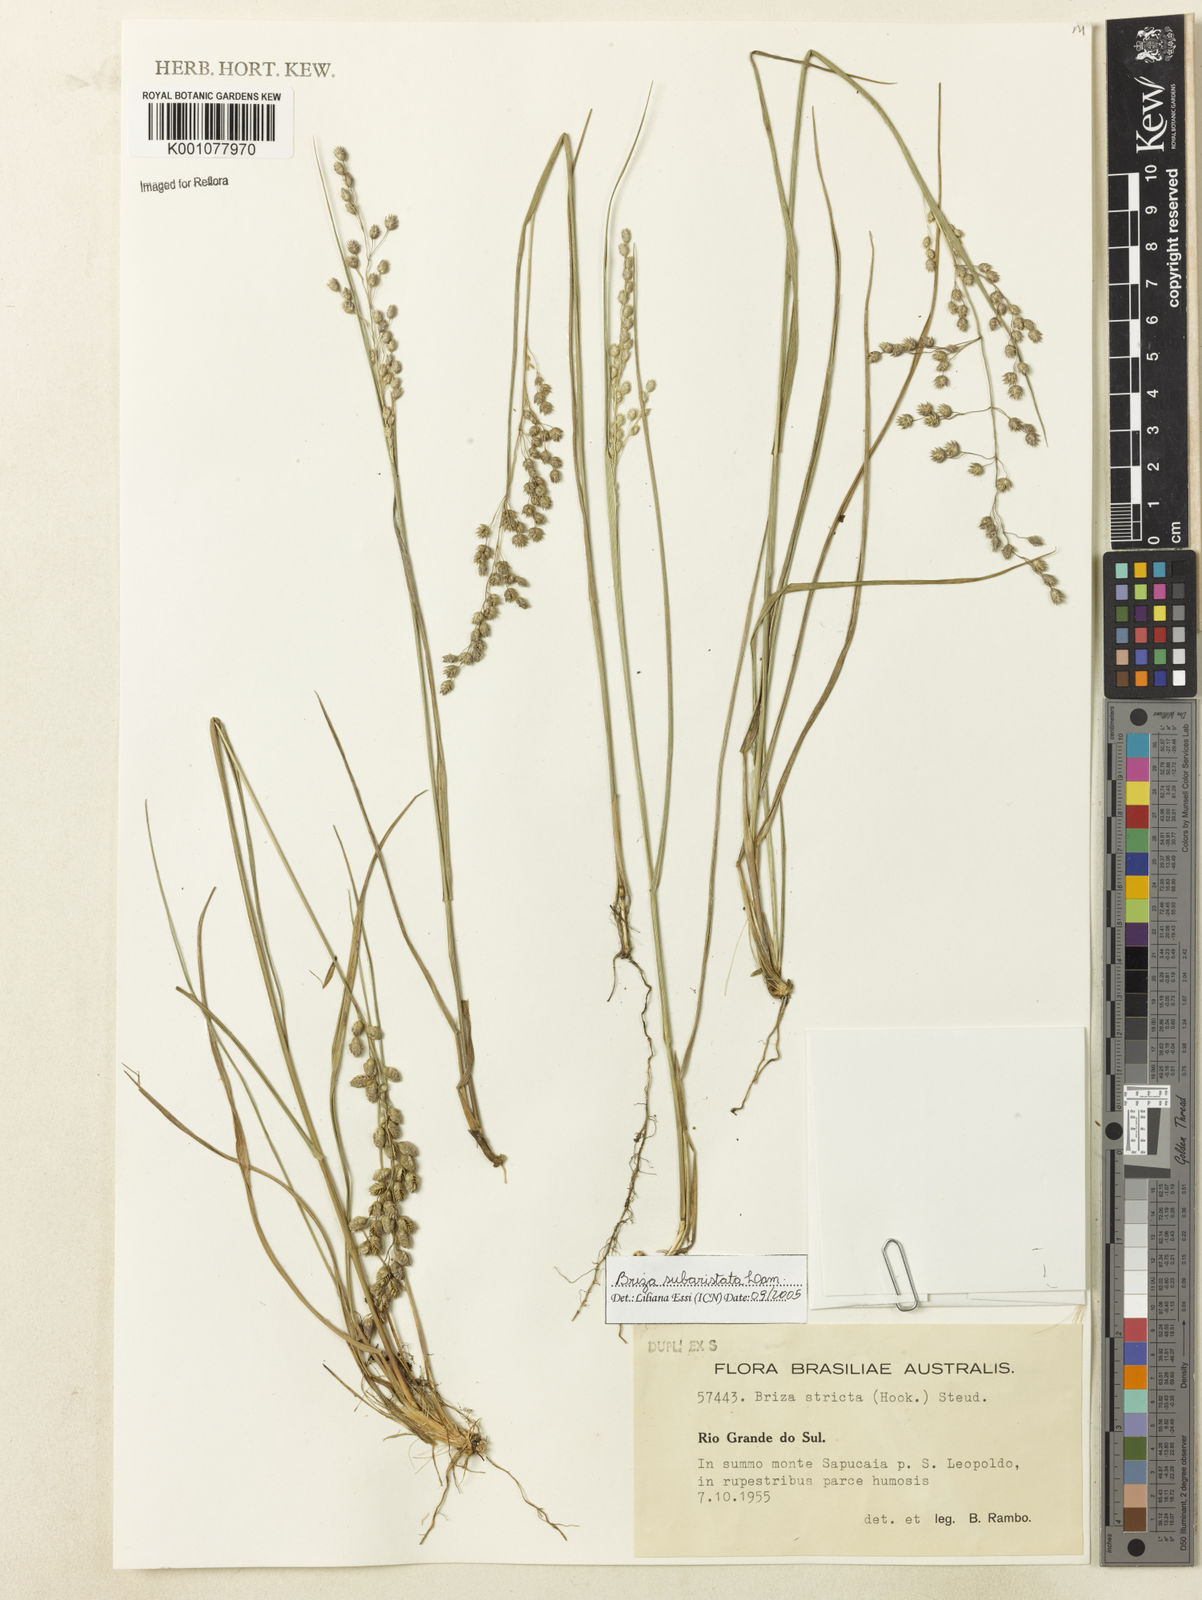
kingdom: Plantae
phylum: Tracheophyta
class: Liliopsida
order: Poales
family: Poaceae
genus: Briza
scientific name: Briza
